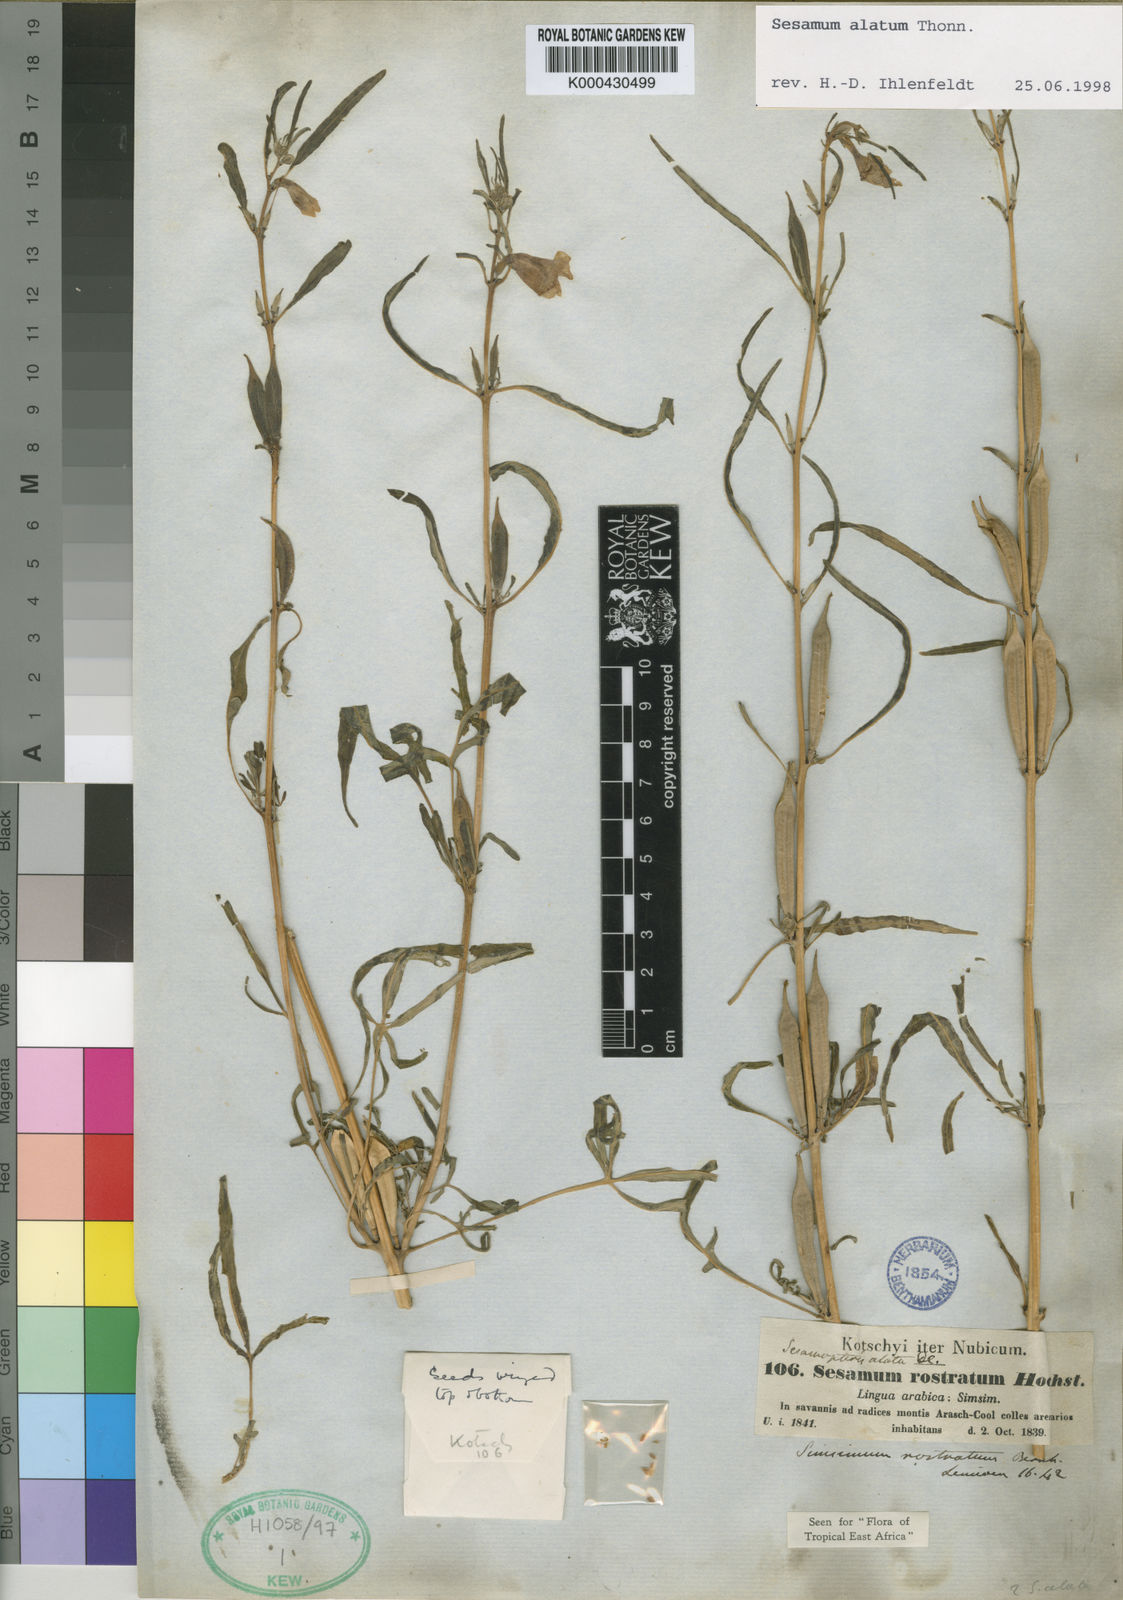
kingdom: Plantae
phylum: Tracheophyta
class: Magnoliopsida
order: Lamiales
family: Pedaliaceae
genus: Sesamum
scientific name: Sesamum alatum
